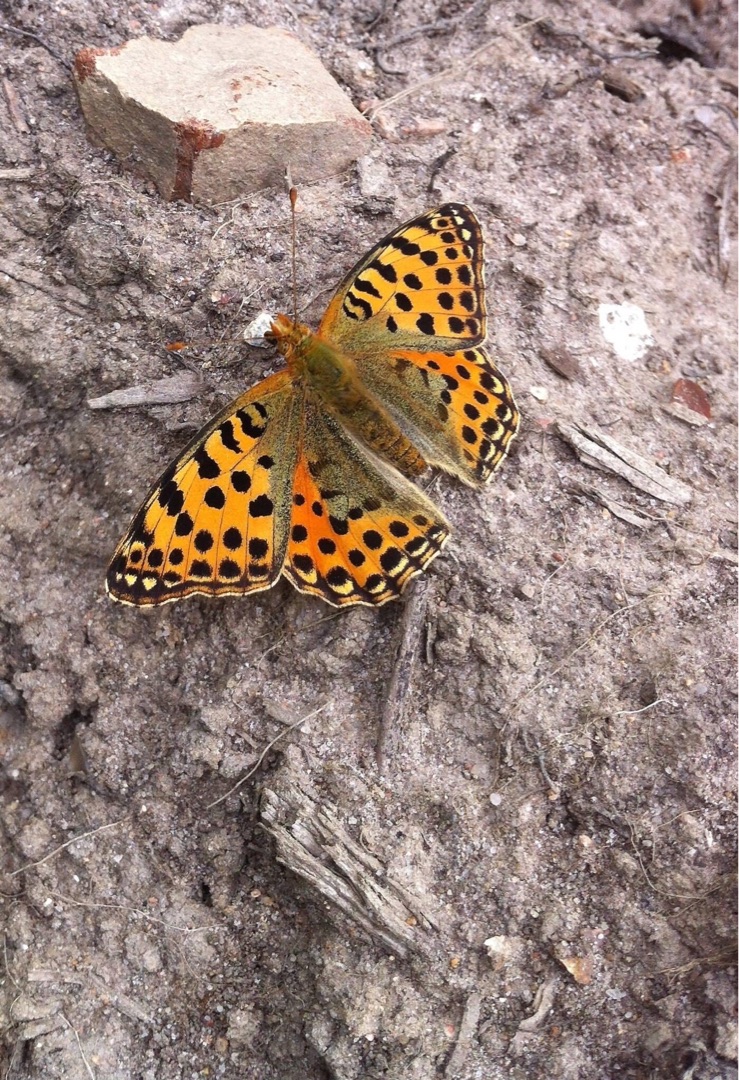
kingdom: Animalia
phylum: Arthropoda
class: Insecta
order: Lepidoptera
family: Nymphalidae
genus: Issoria
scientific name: Issoria lathonia
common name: Storplettet perlemorsommerfugl
